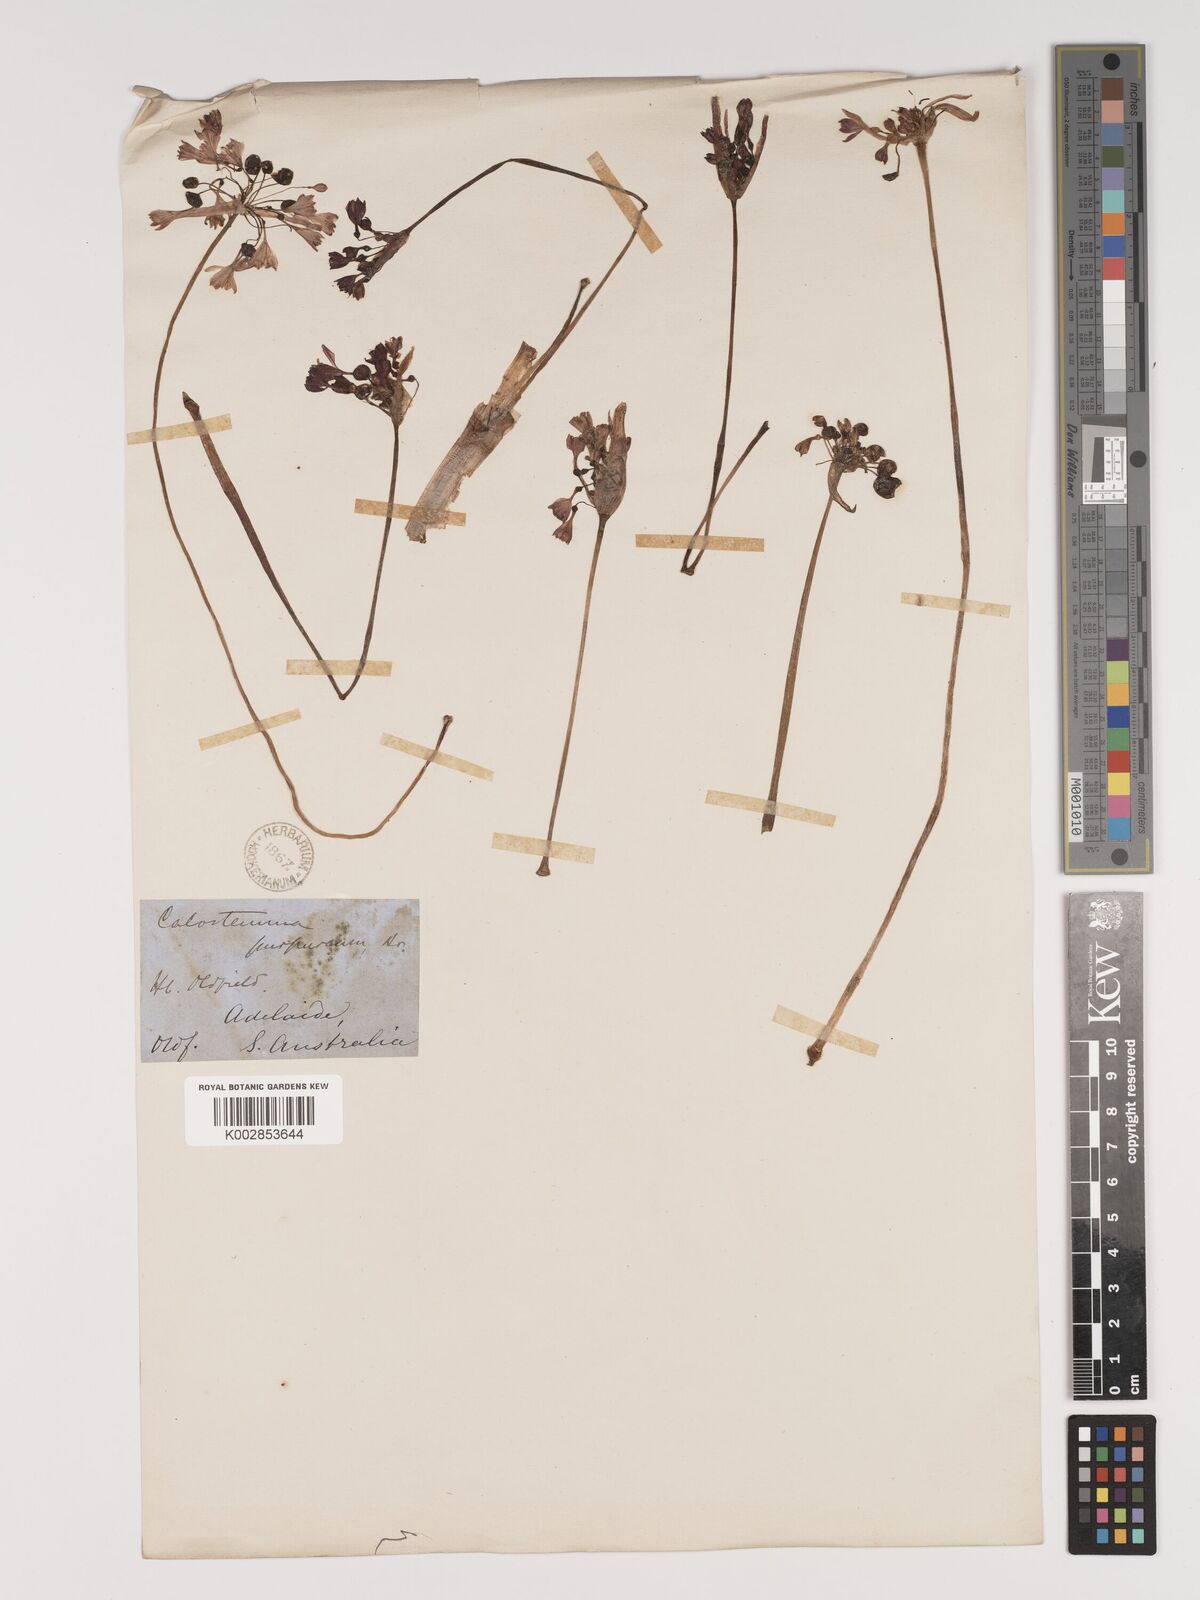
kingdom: Plantae
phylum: Tracheophyta
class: Liliopsida
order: Asparagales
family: Amaryllidaceae
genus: Calostemma
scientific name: Calostemma purpureum
